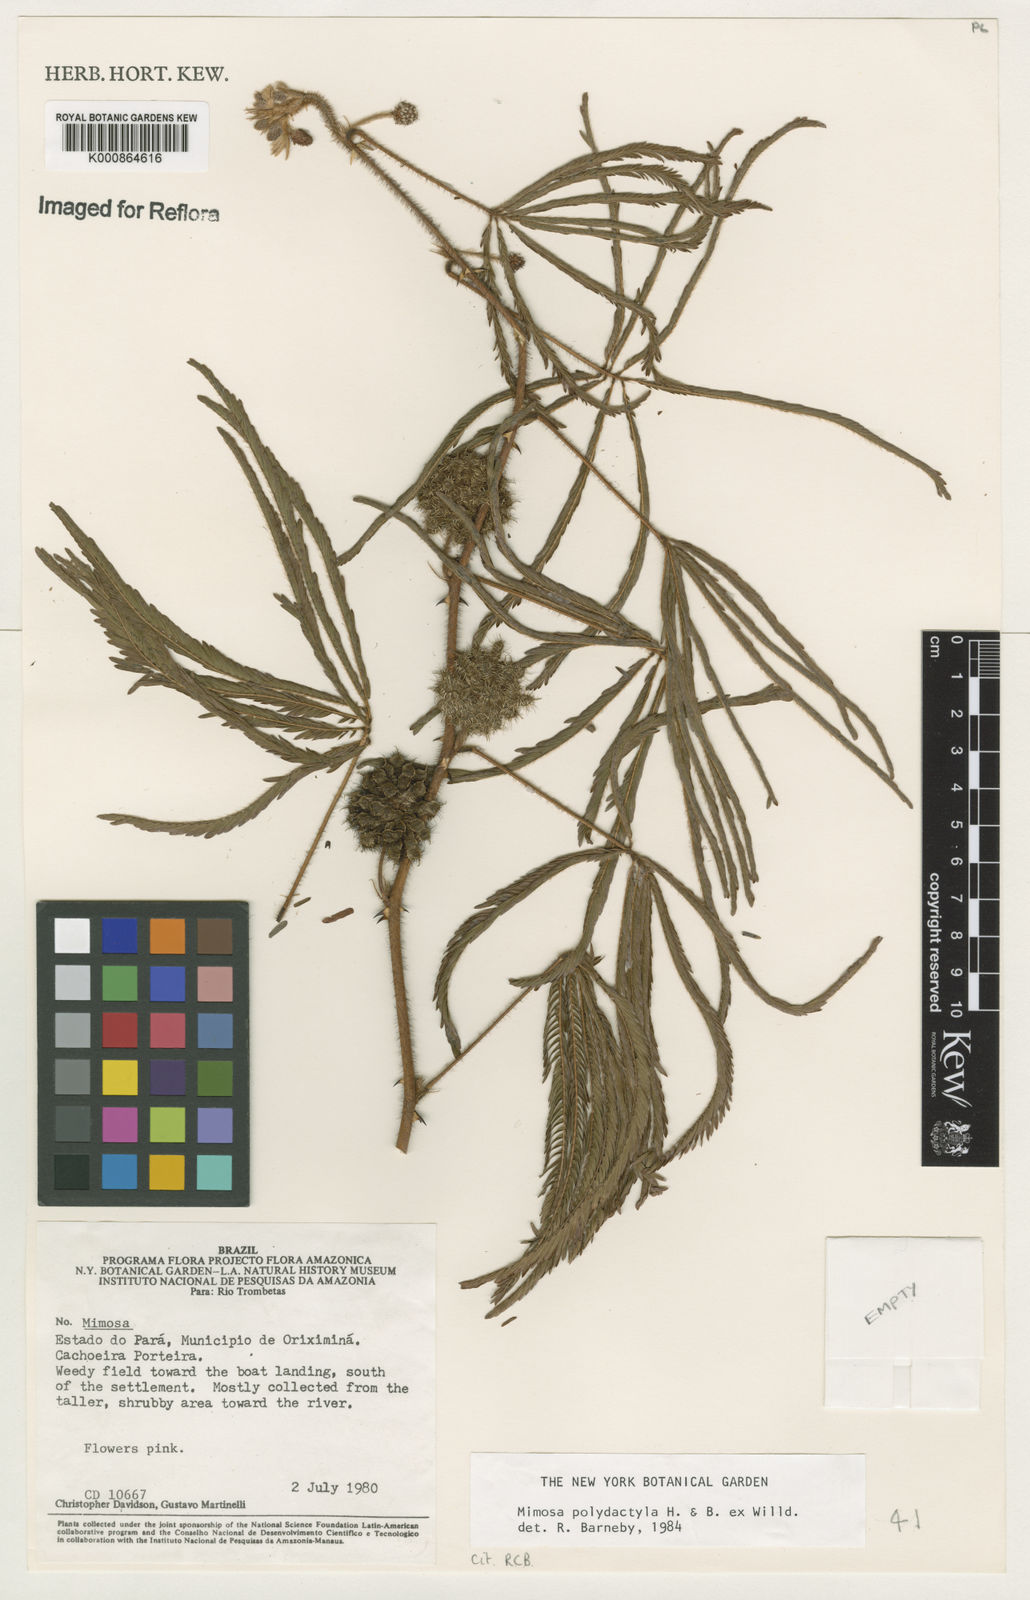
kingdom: Plantae
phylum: Tracheophyta
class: Magnoliopsida
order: Fabales
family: Fabaceae
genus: Mimosa
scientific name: Mimosa polydactyla
